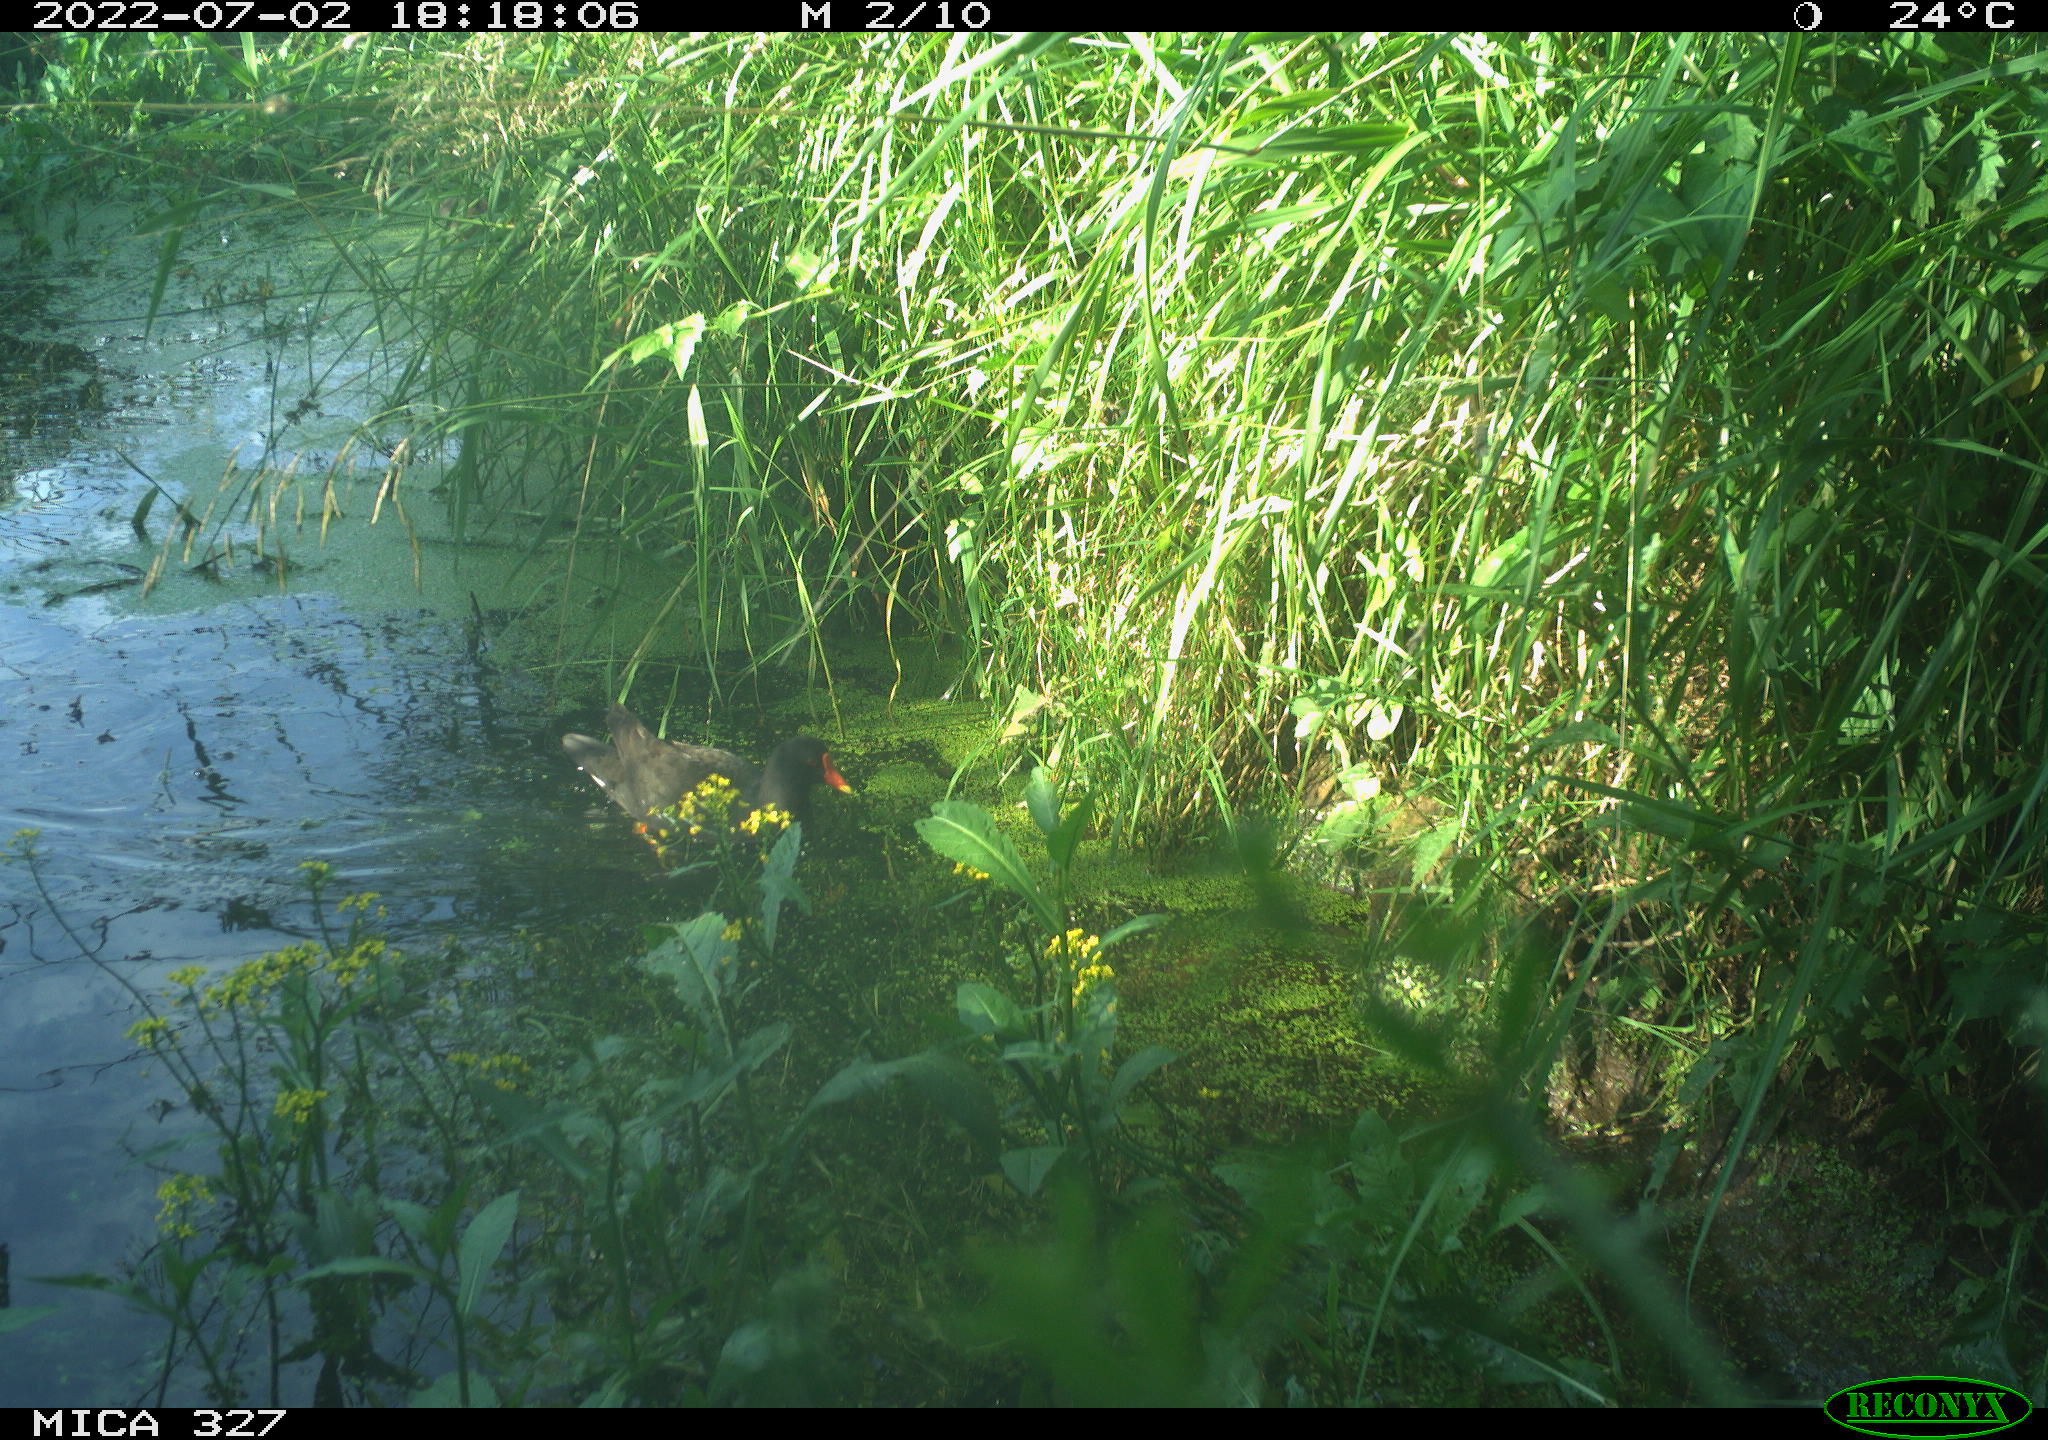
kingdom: Animalia
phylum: Chordata
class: Aves
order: Gruiformes
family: Rallidae
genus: Gallinula
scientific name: Gallinula chloropus
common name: Common moorhen
